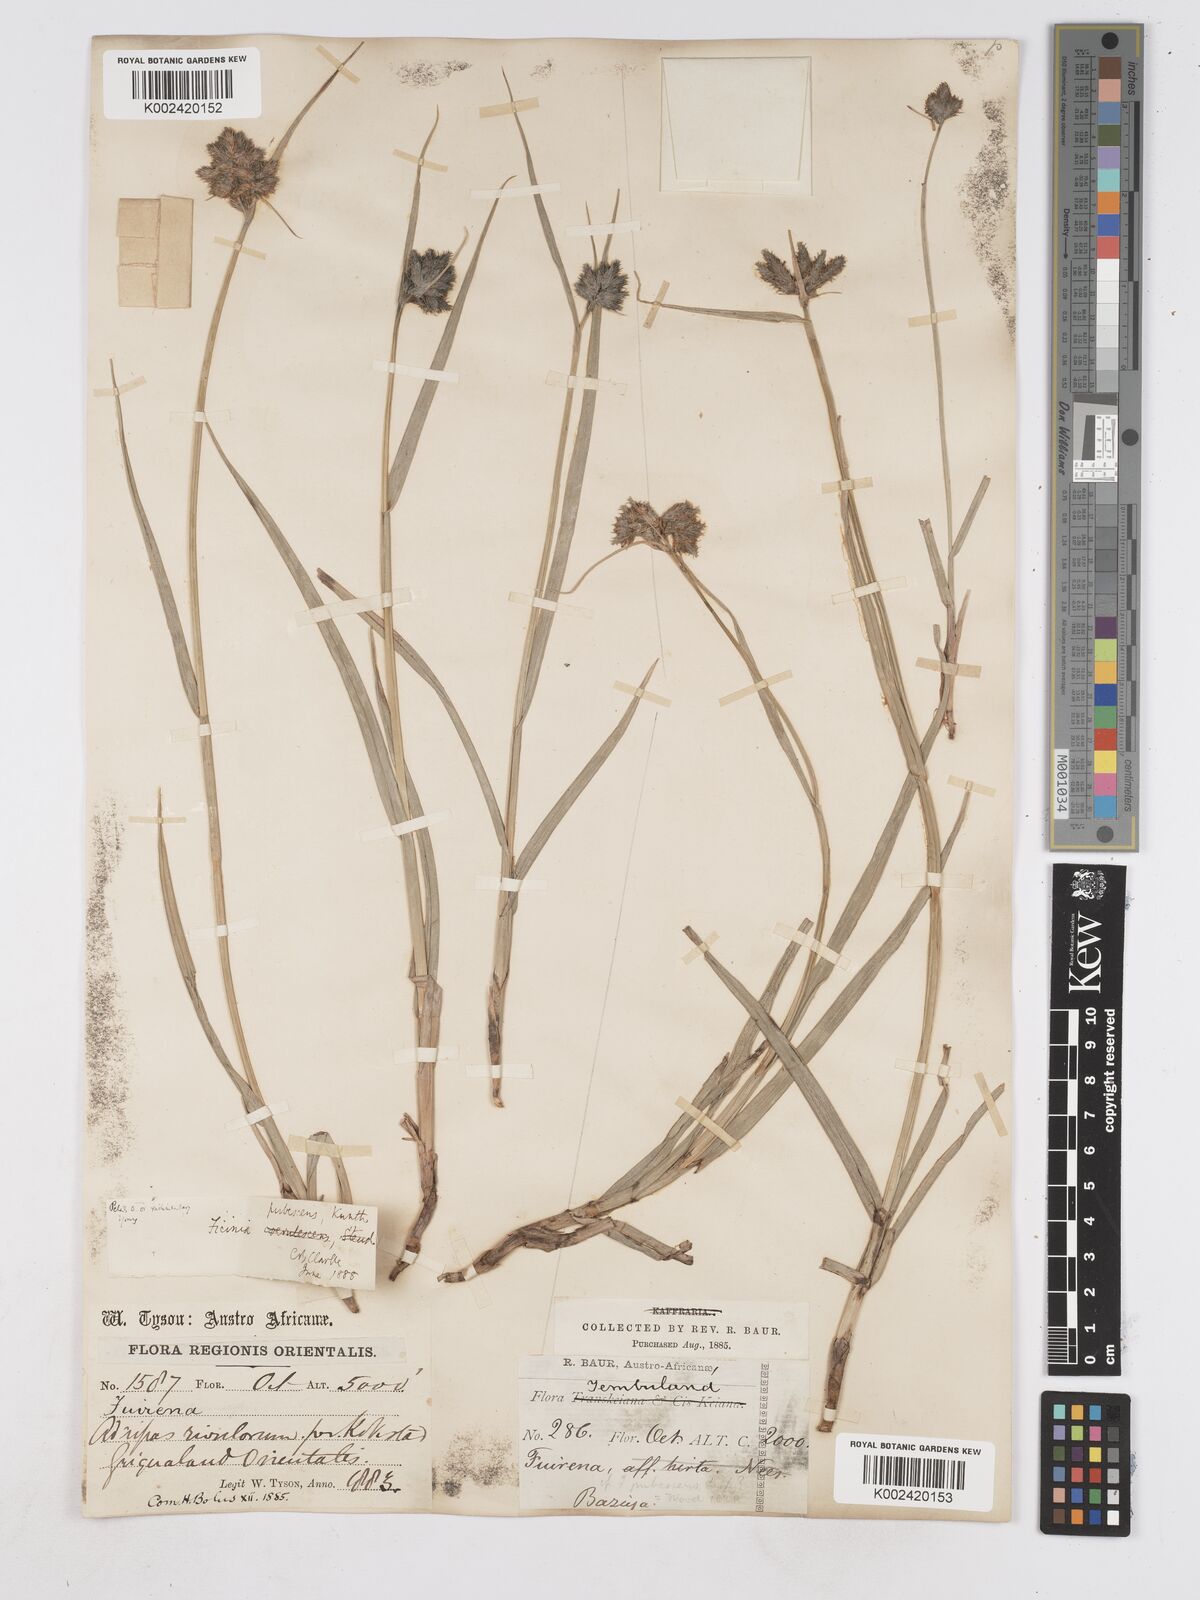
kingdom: Plantae
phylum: Tracheophyta
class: Liliopsida
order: Poales
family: Cyperaceae
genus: Fuirena
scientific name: Fuirena pubescens
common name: Hairy sedge
